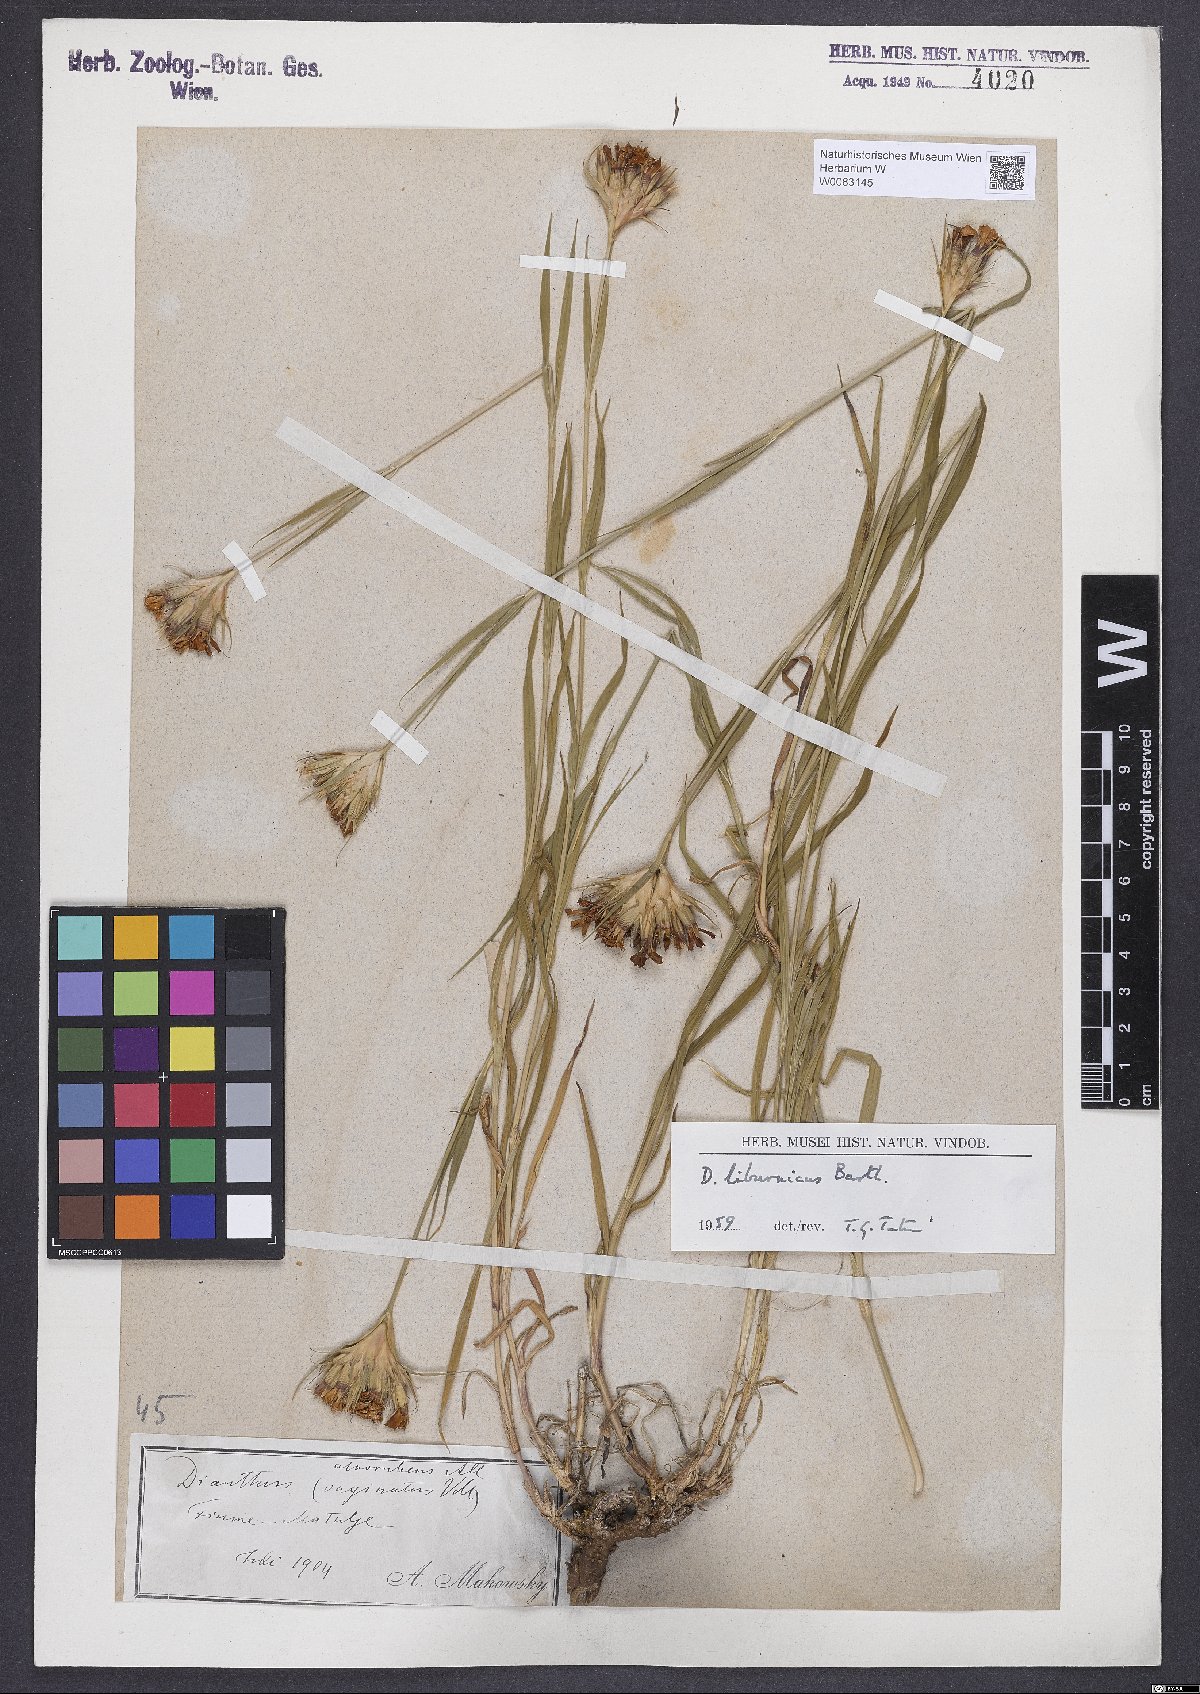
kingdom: Plantae
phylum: Tracheophyta
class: Magnoliopsida
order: Caryophyllales
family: Caryophyllaceae
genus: Dianthus
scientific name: Dianthus balbisii
